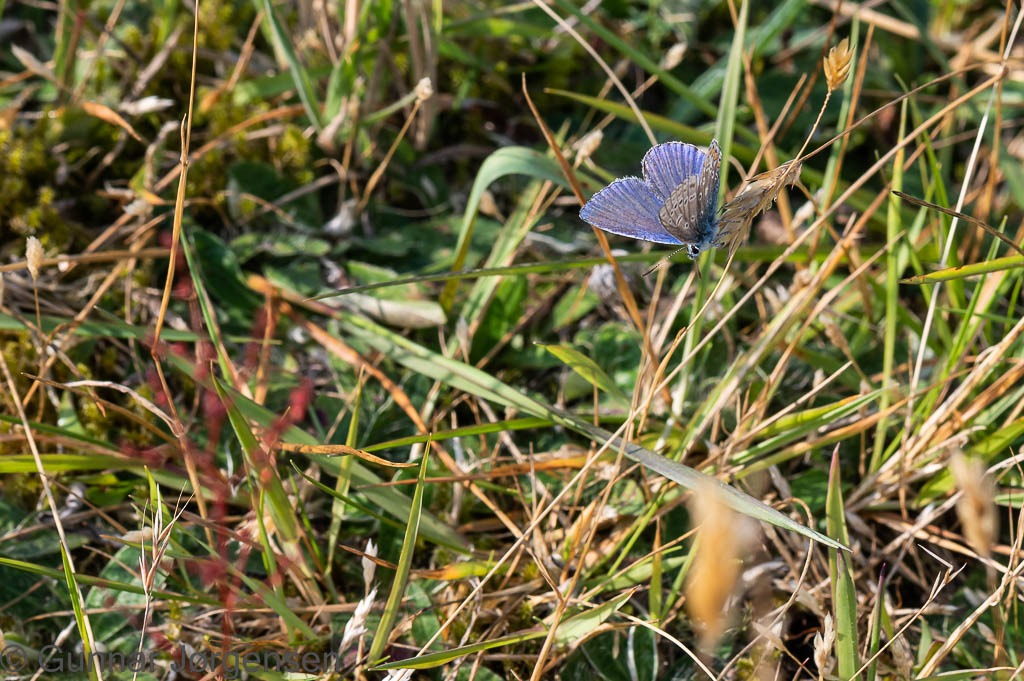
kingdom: Animalia
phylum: Arthropoda
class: Insecta
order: Lepidoptera
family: Lycaenidae
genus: Polyommatus
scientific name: Polyommatus icarus
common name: Almindelig blåfugl
